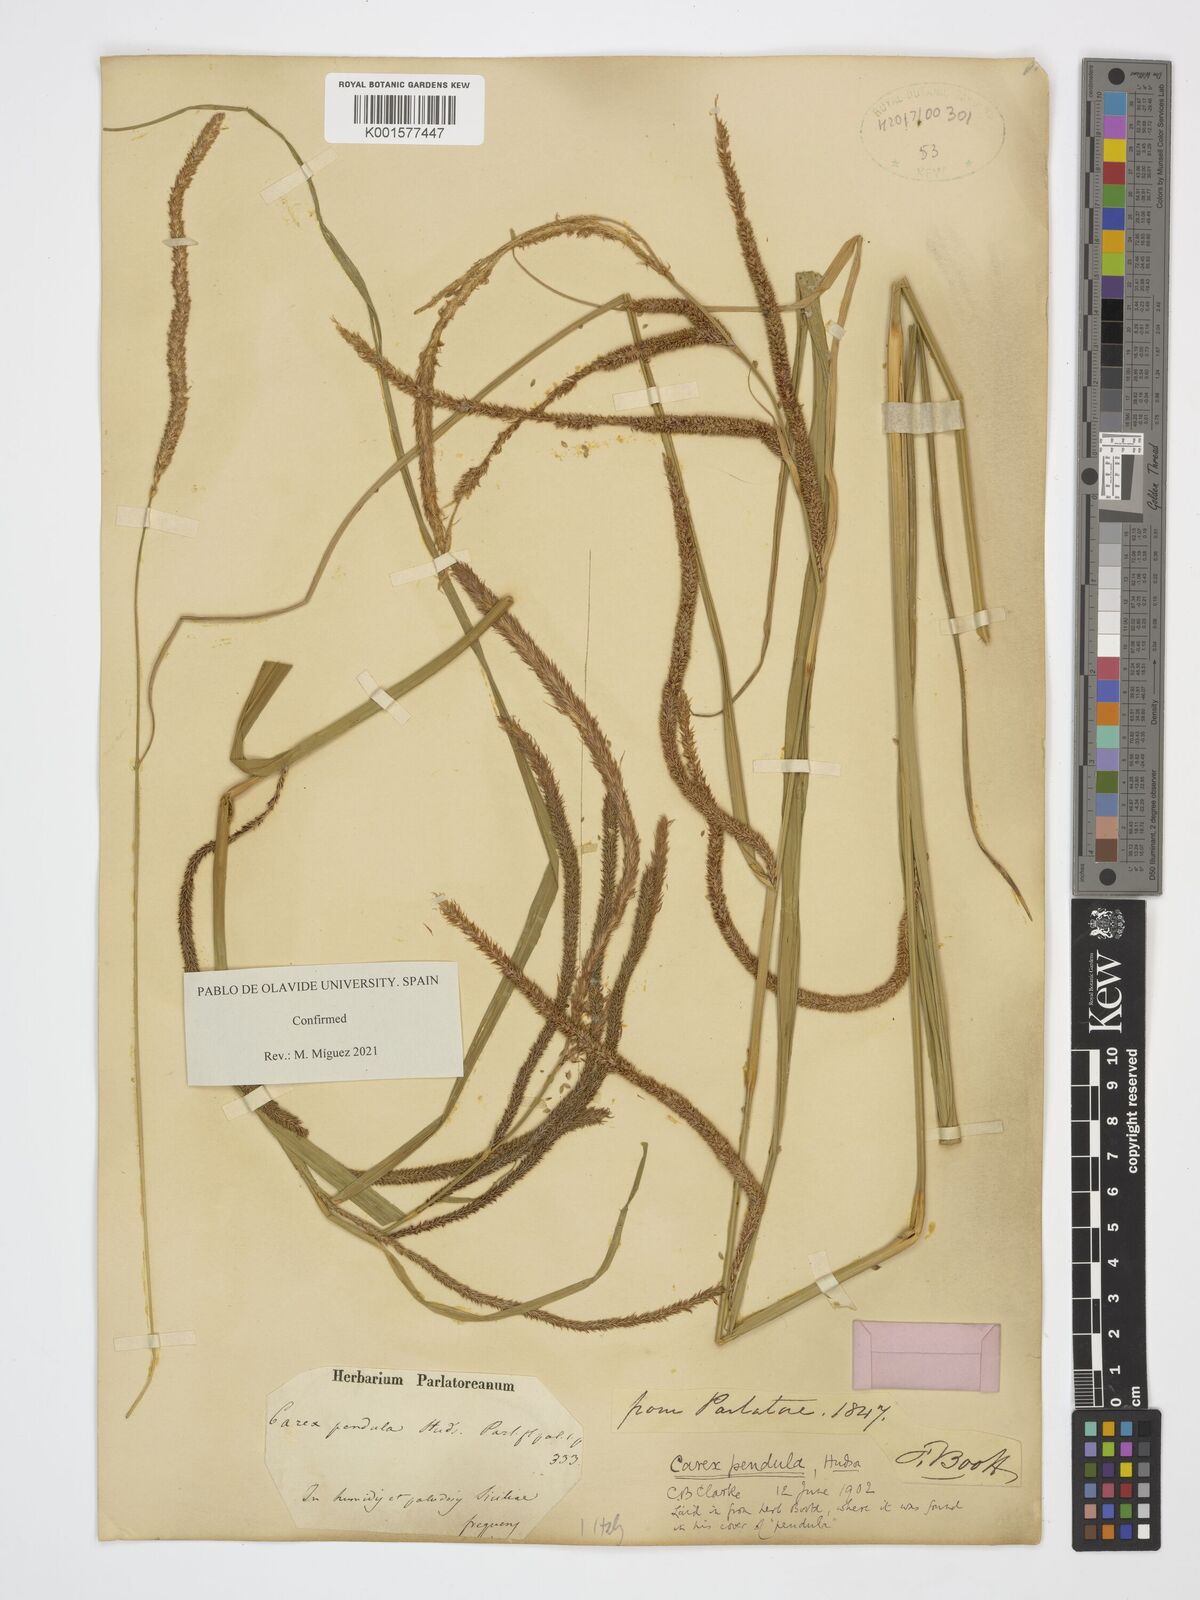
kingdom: Plantae
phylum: Tracheophyta
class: Liliopsida
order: Poales
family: Cyperaceae
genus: Carex
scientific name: Carex pendula
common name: Pendulous sedge
